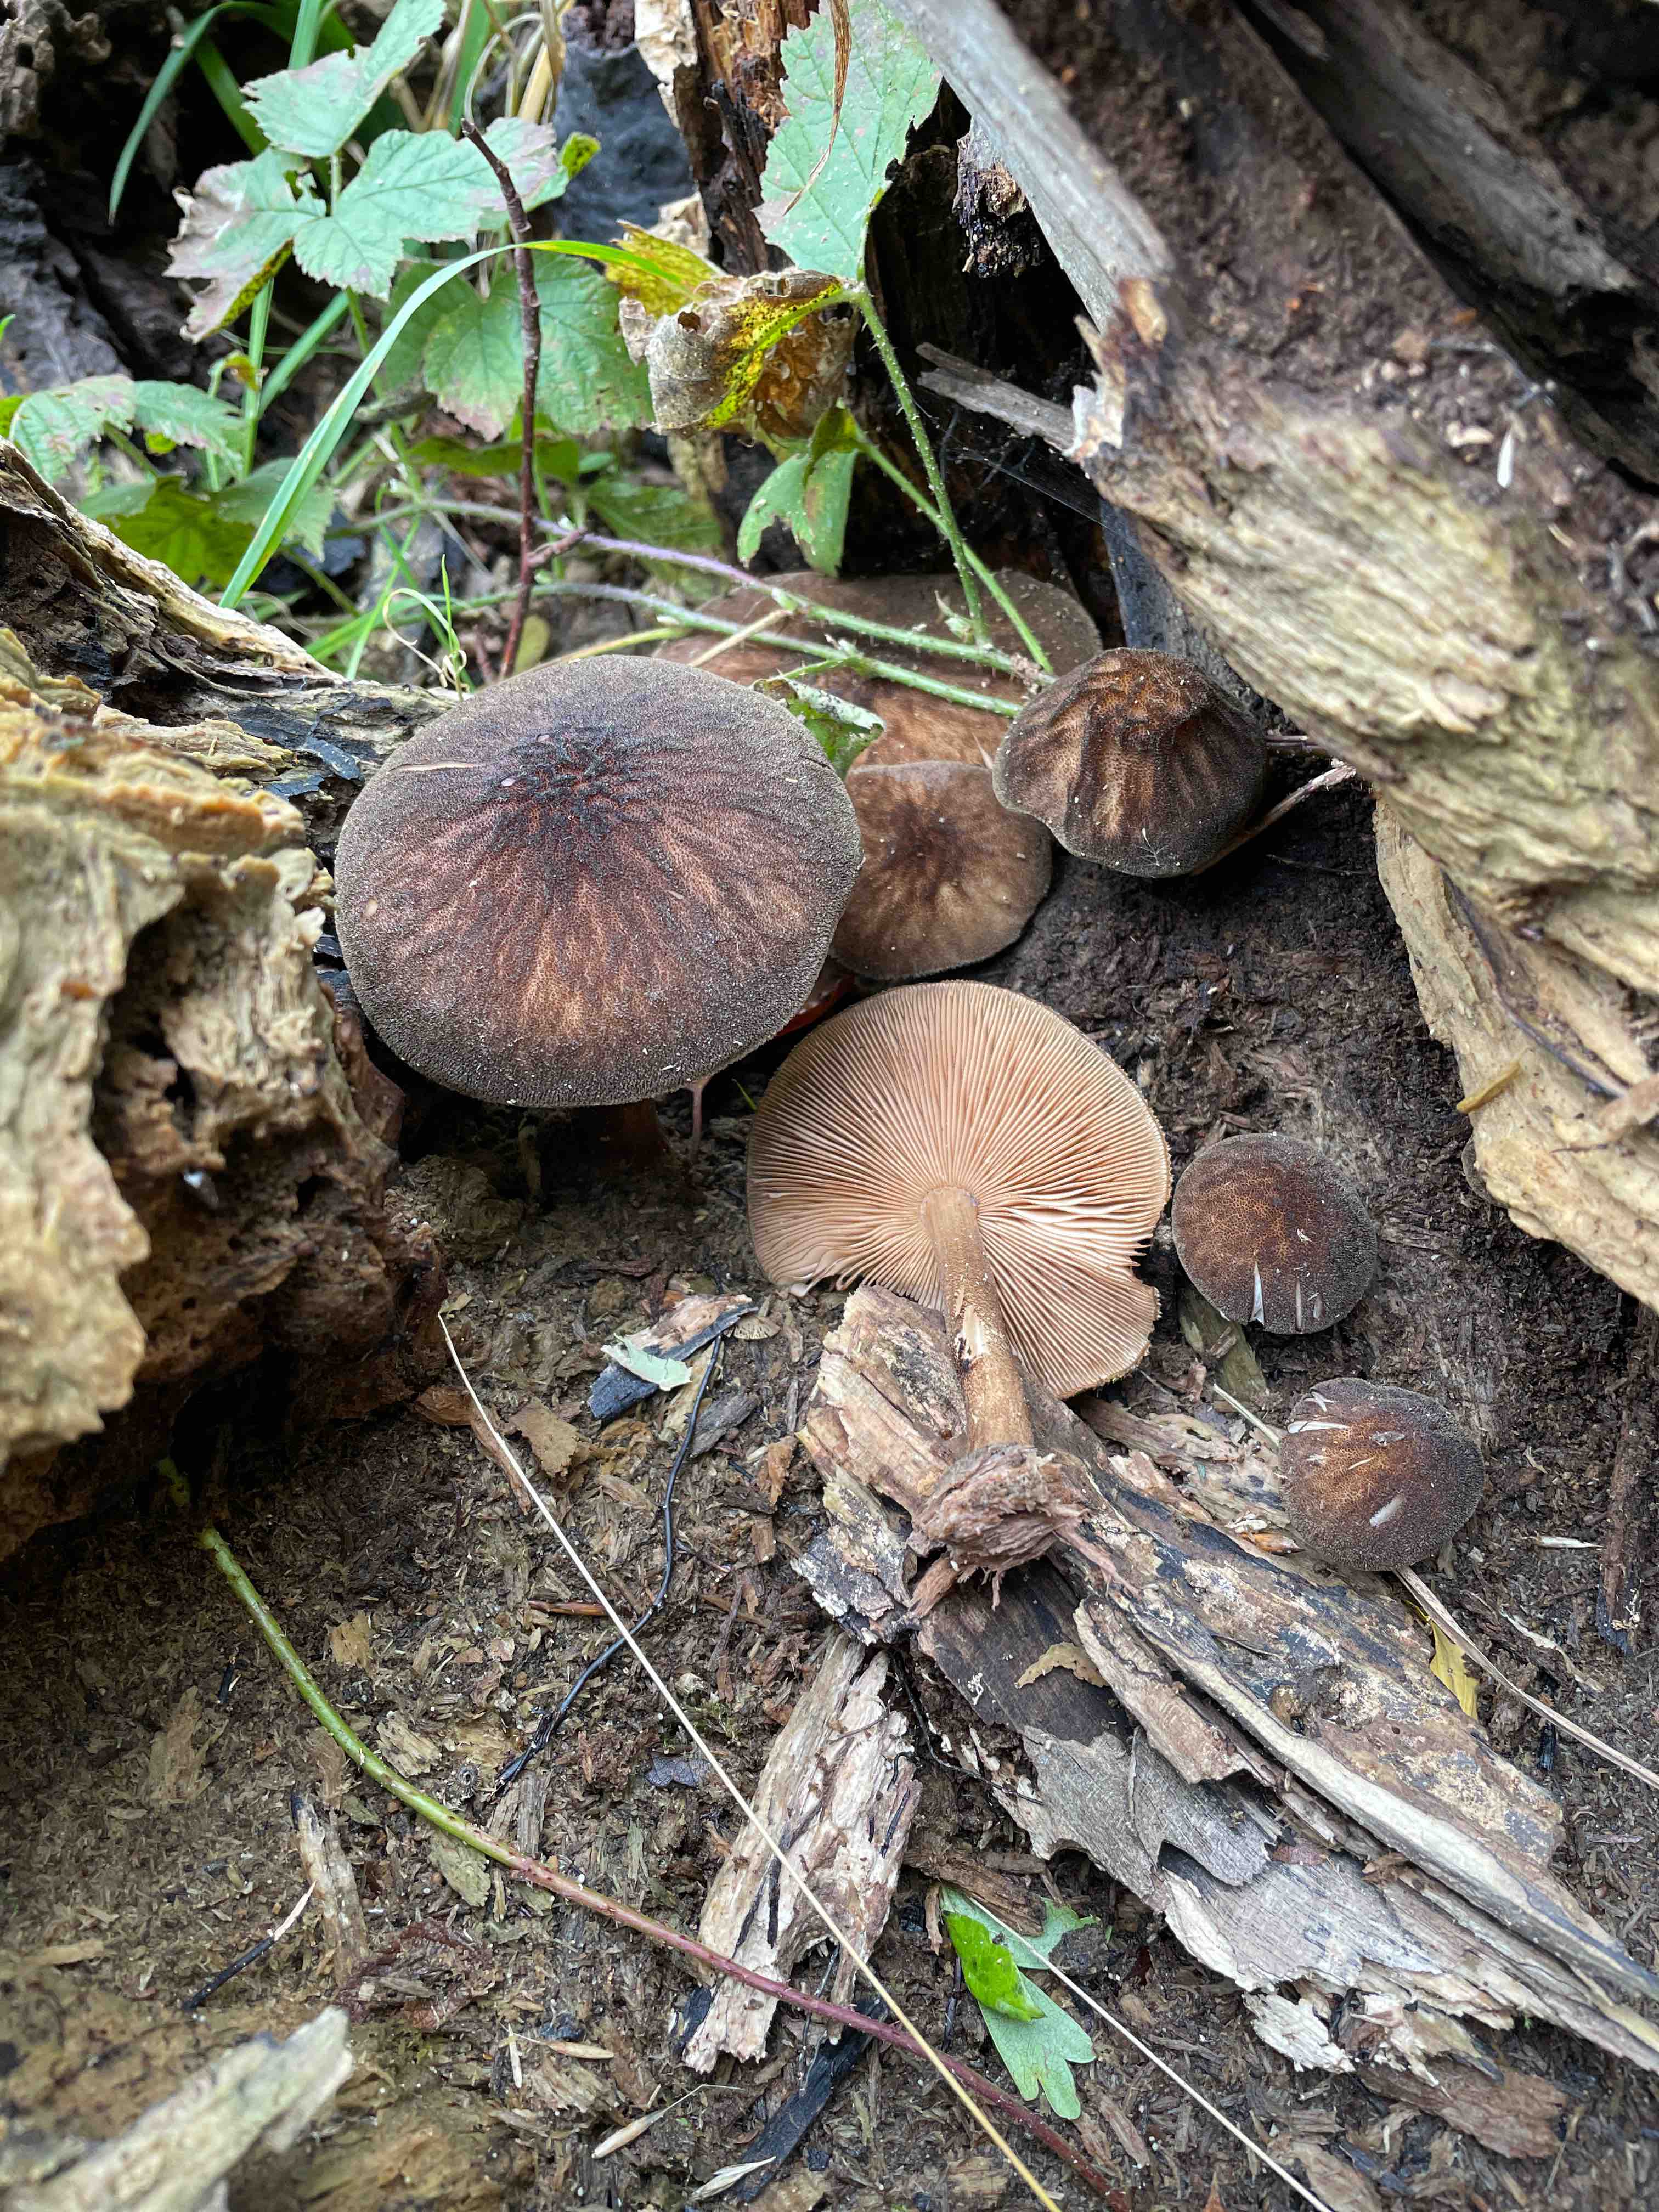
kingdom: Fungi
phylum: Basidiomycota
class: Agaricomycetes
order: Agaricales
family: Pluteaceae
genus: Pluteus
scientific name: Pluteus umbrosus
